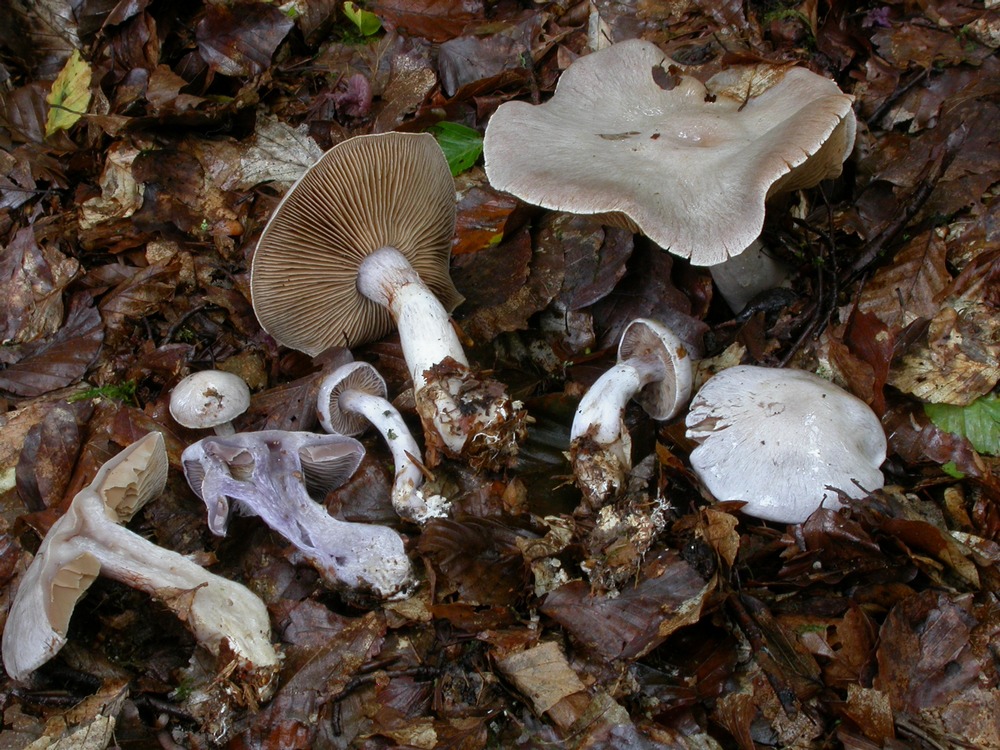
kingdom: Fungi
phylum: Basidiomycota
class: Agaricomycetes
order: Agaricales
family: Cortinariaceae
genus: Cortinarius
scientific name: Cortinarius alboviolaceus
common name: lysviolet slørhat
